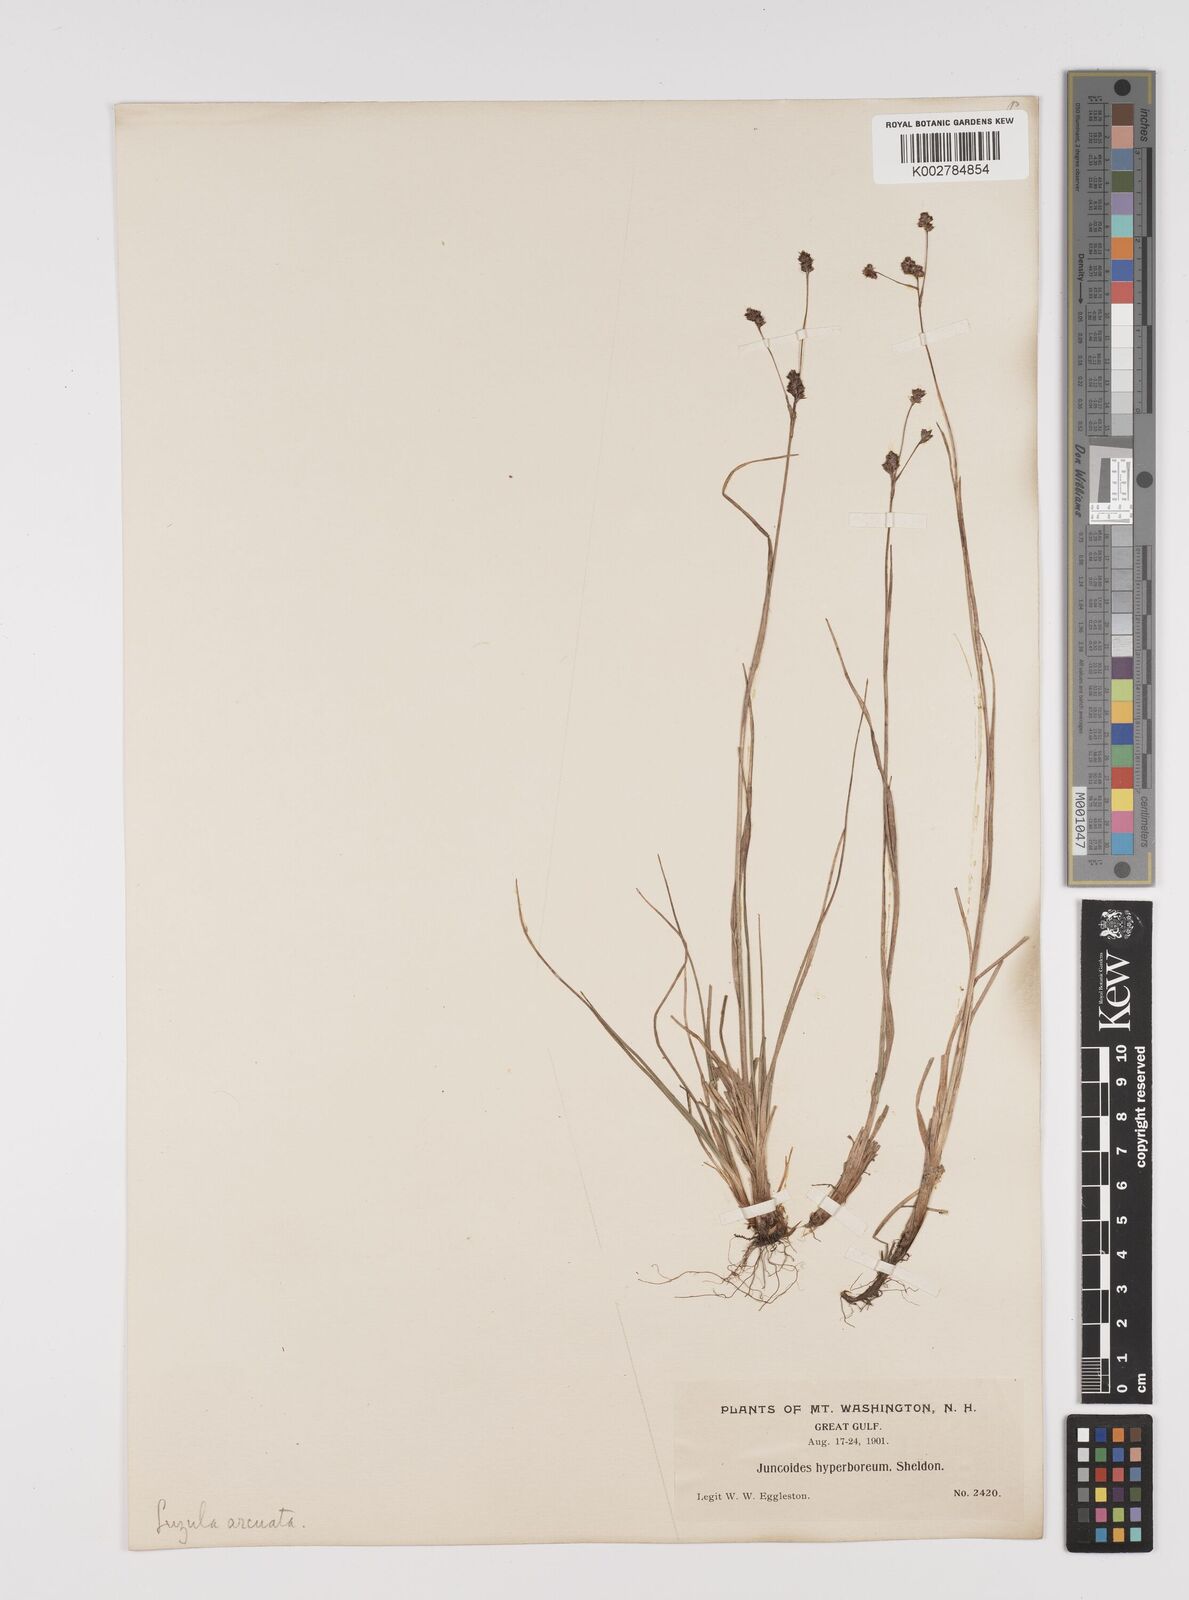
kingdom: Plantae
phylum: Tracheophyta
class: Liliopsida
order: Poales
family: Juncaceae
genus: Luzula
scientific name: Luzula confusa
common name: Northern wood rush
